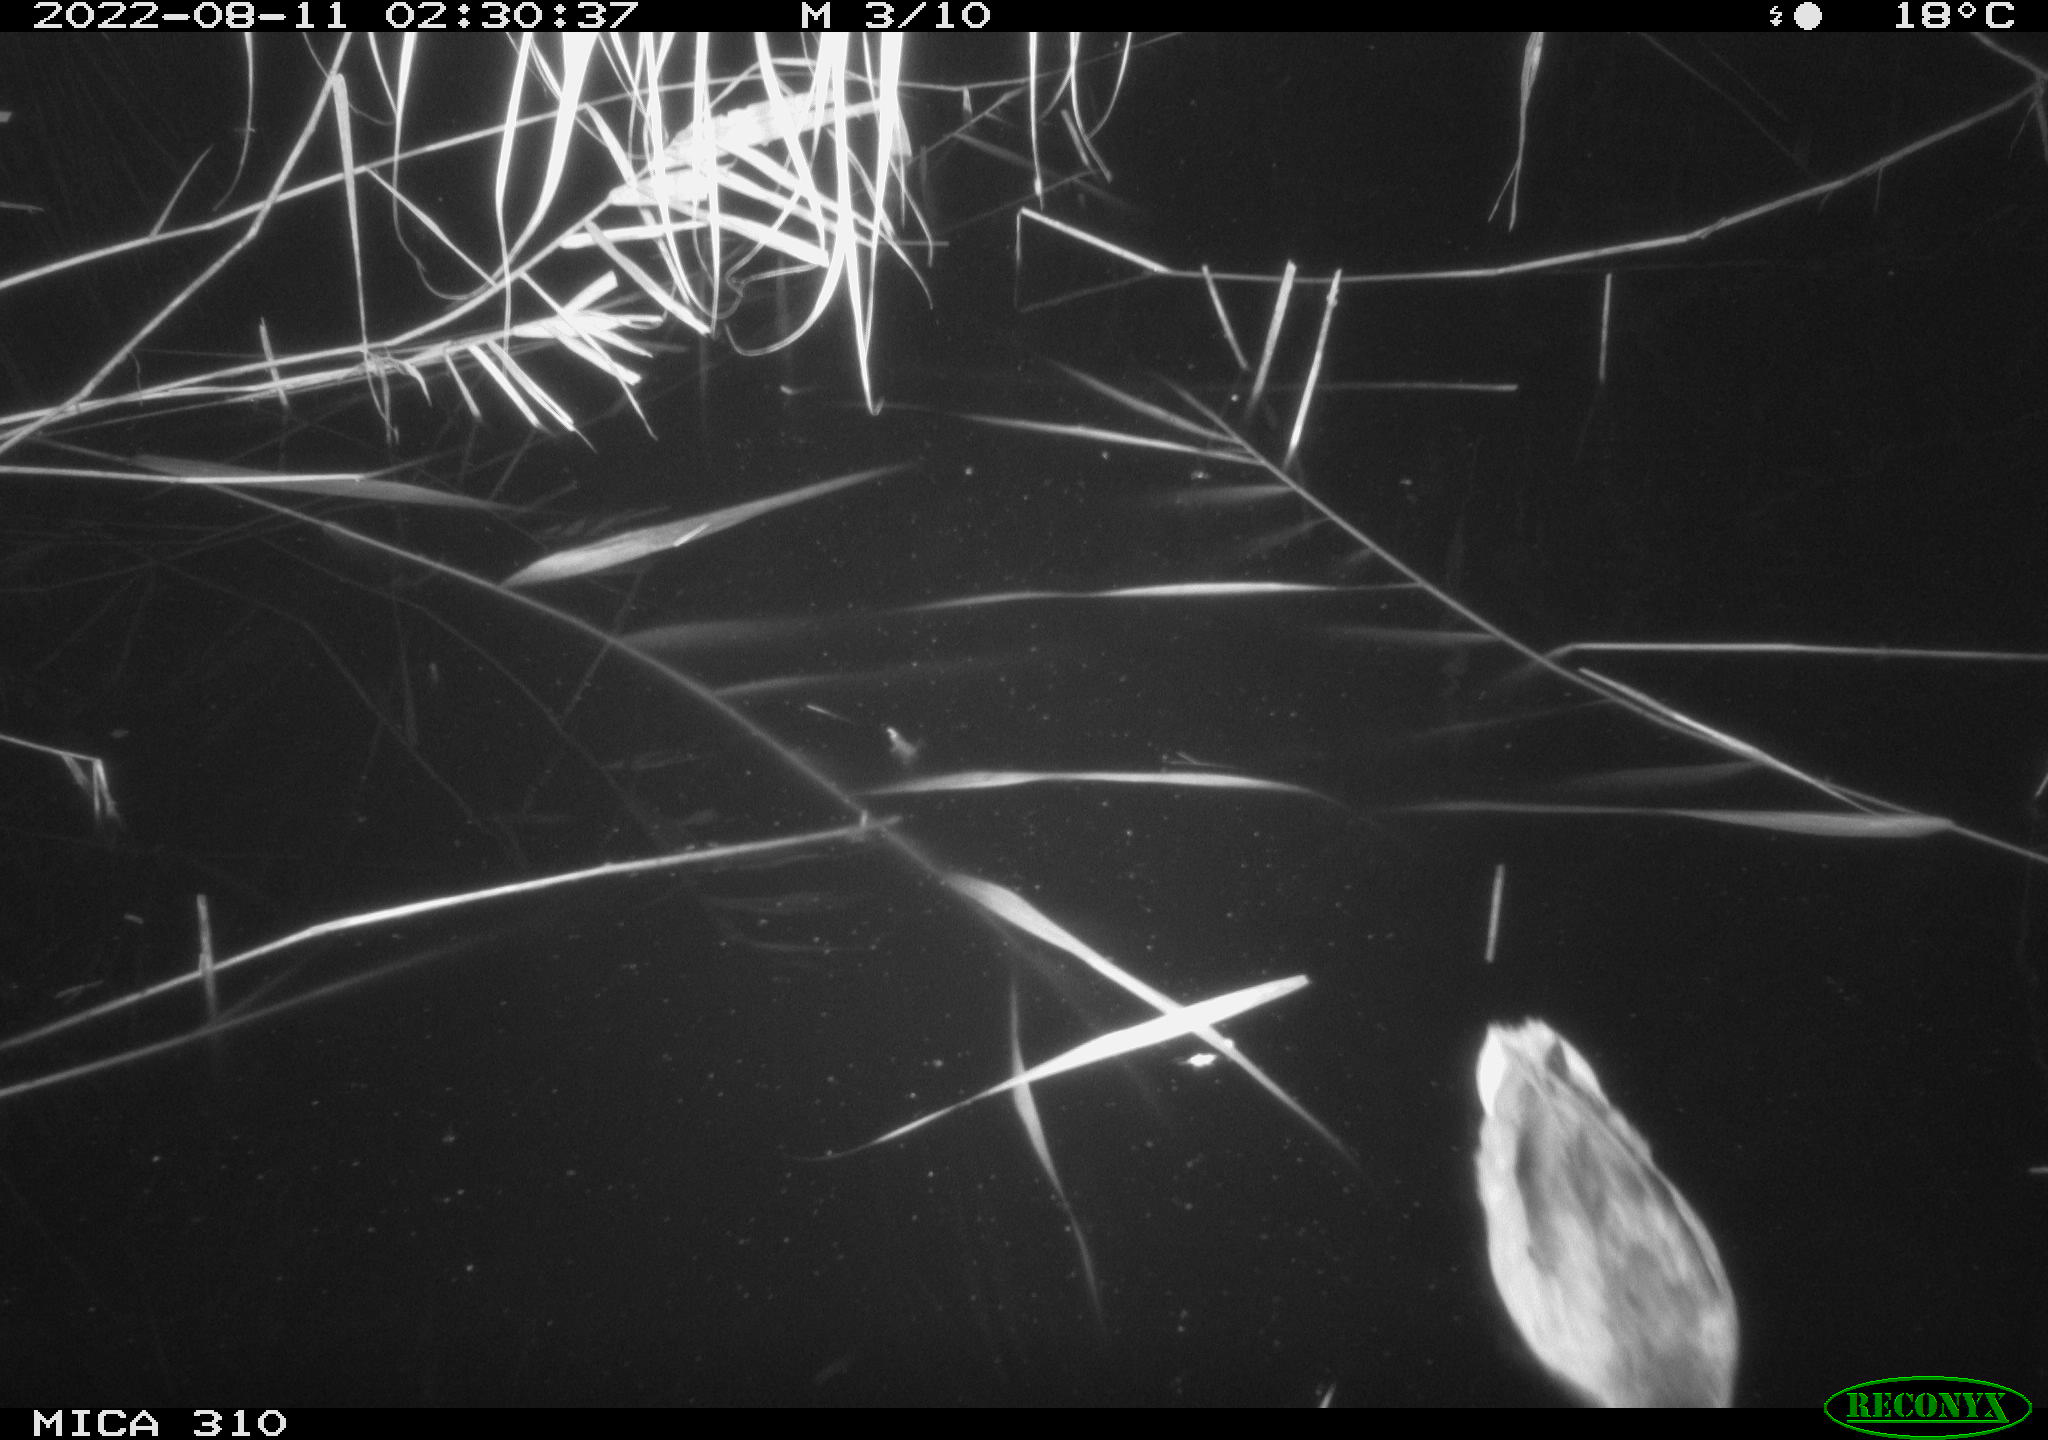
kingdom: Animalia
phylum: Chordata
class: Aves
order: Anseriformes
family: Anatidae
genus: Anas
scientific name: Anas platyrhynchos
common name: Mallard
